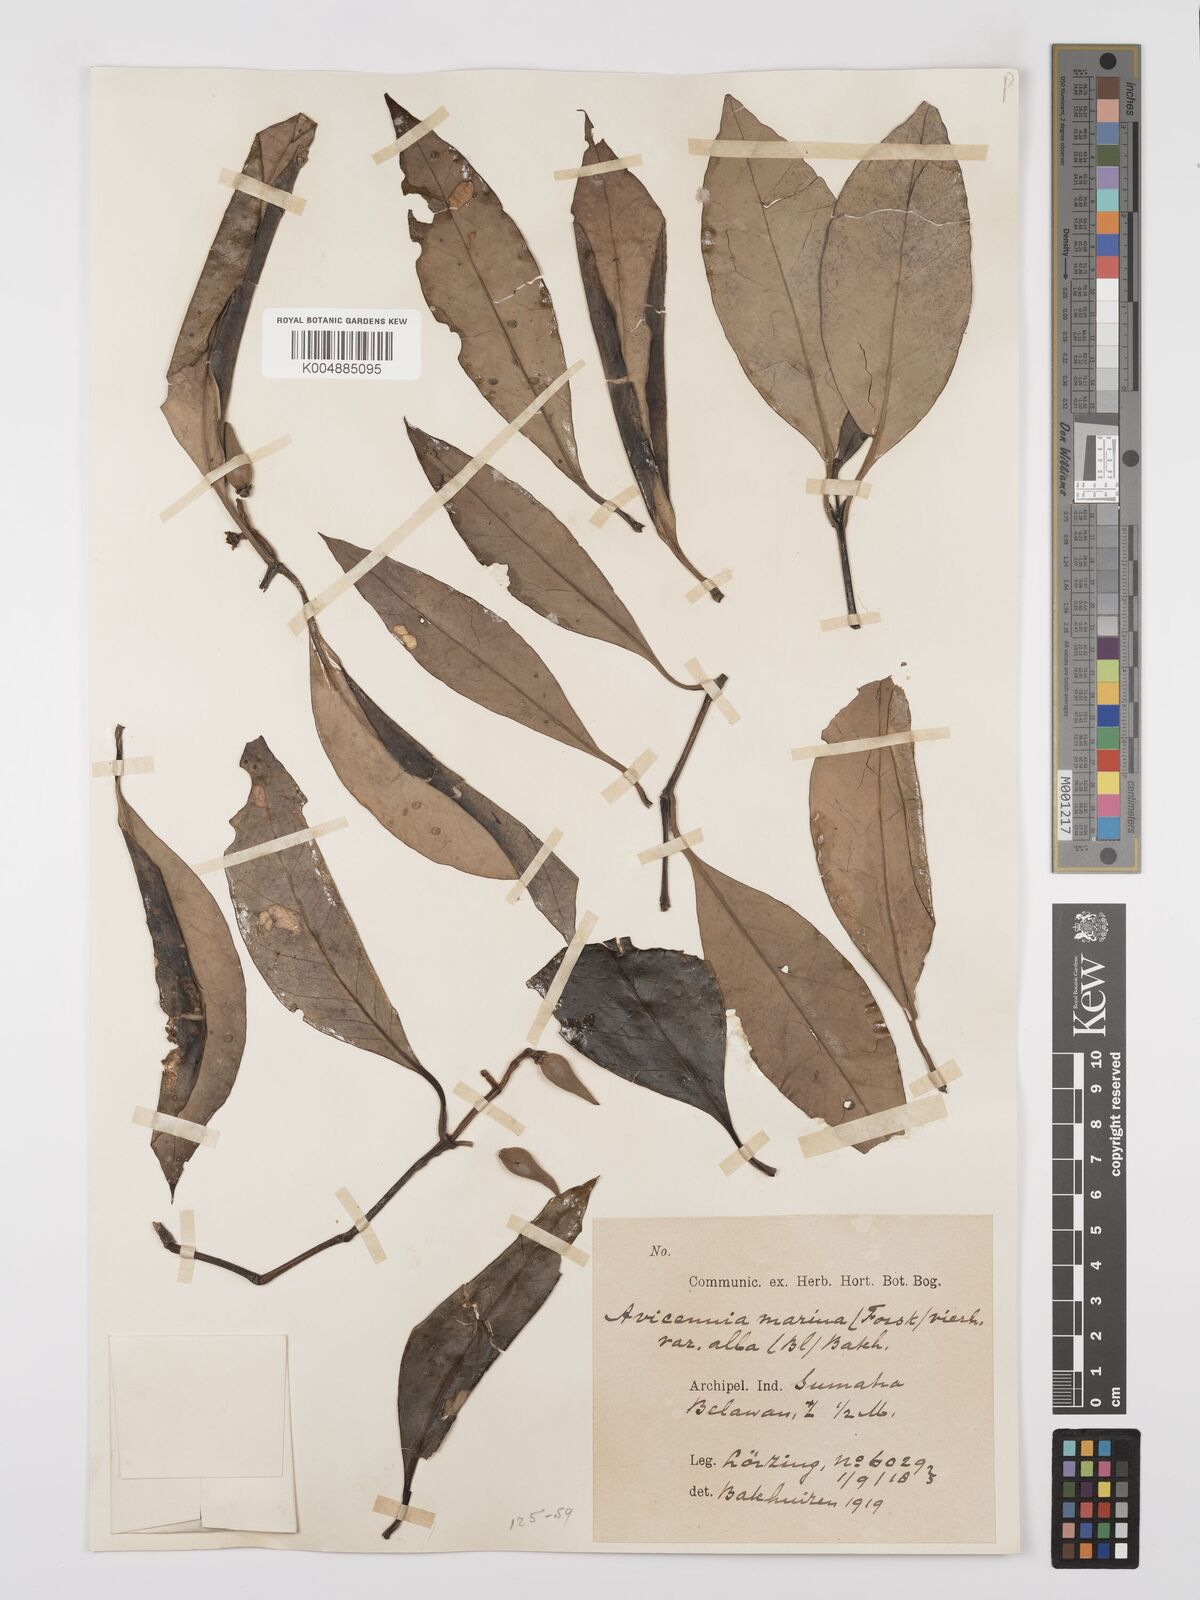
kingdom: Plantae
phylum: Tracheophyta
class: Magnoliopsida
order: Lamiales
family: Acanthaceae
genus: Avicennia
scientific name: Avicennia alba
